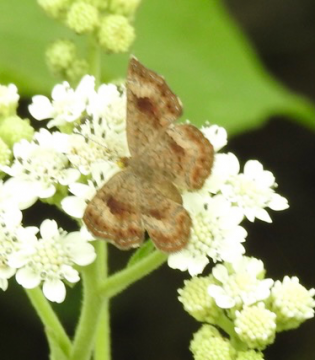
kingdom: Animalia
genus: Calephelis
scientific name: Calephelis nemesis
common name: Fatal Metalmark
